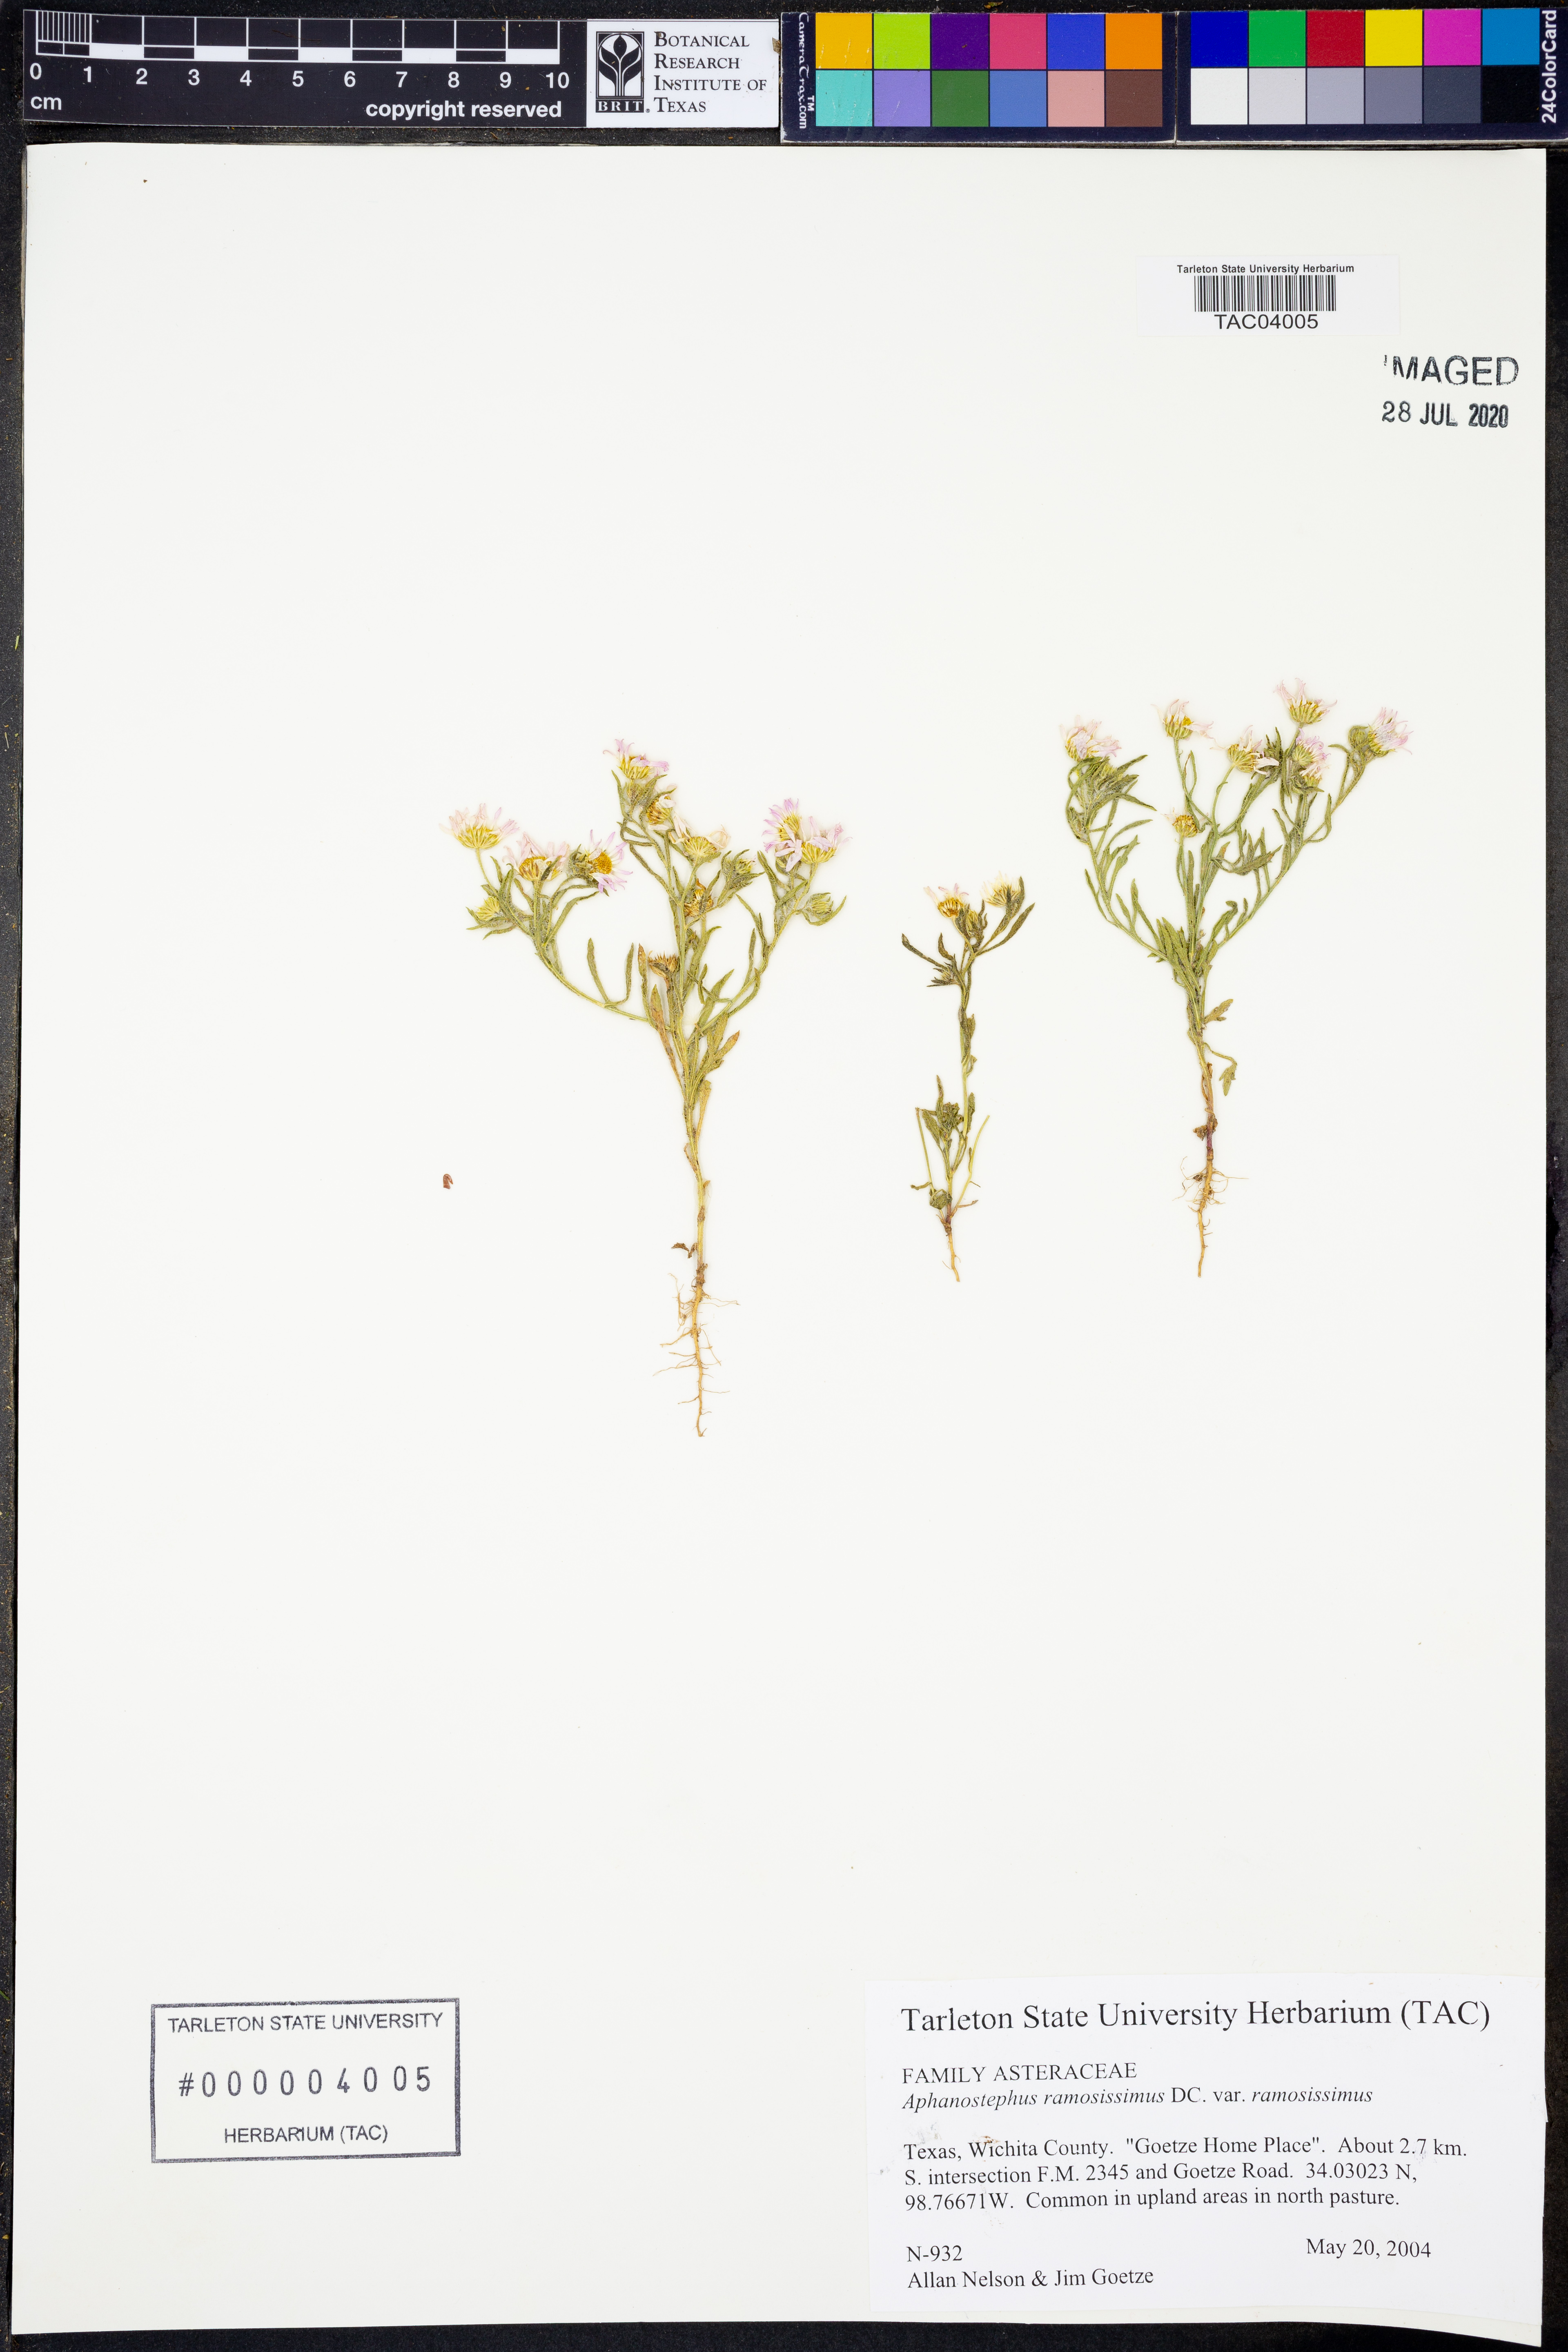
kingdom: Plantae
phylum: Tracheophyta
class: Magnoliopsida
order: Asterales
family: Asteraceae
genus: Aphanostephus
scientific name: Aphanostephus ramosissimus
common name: Plains lazy daisy
